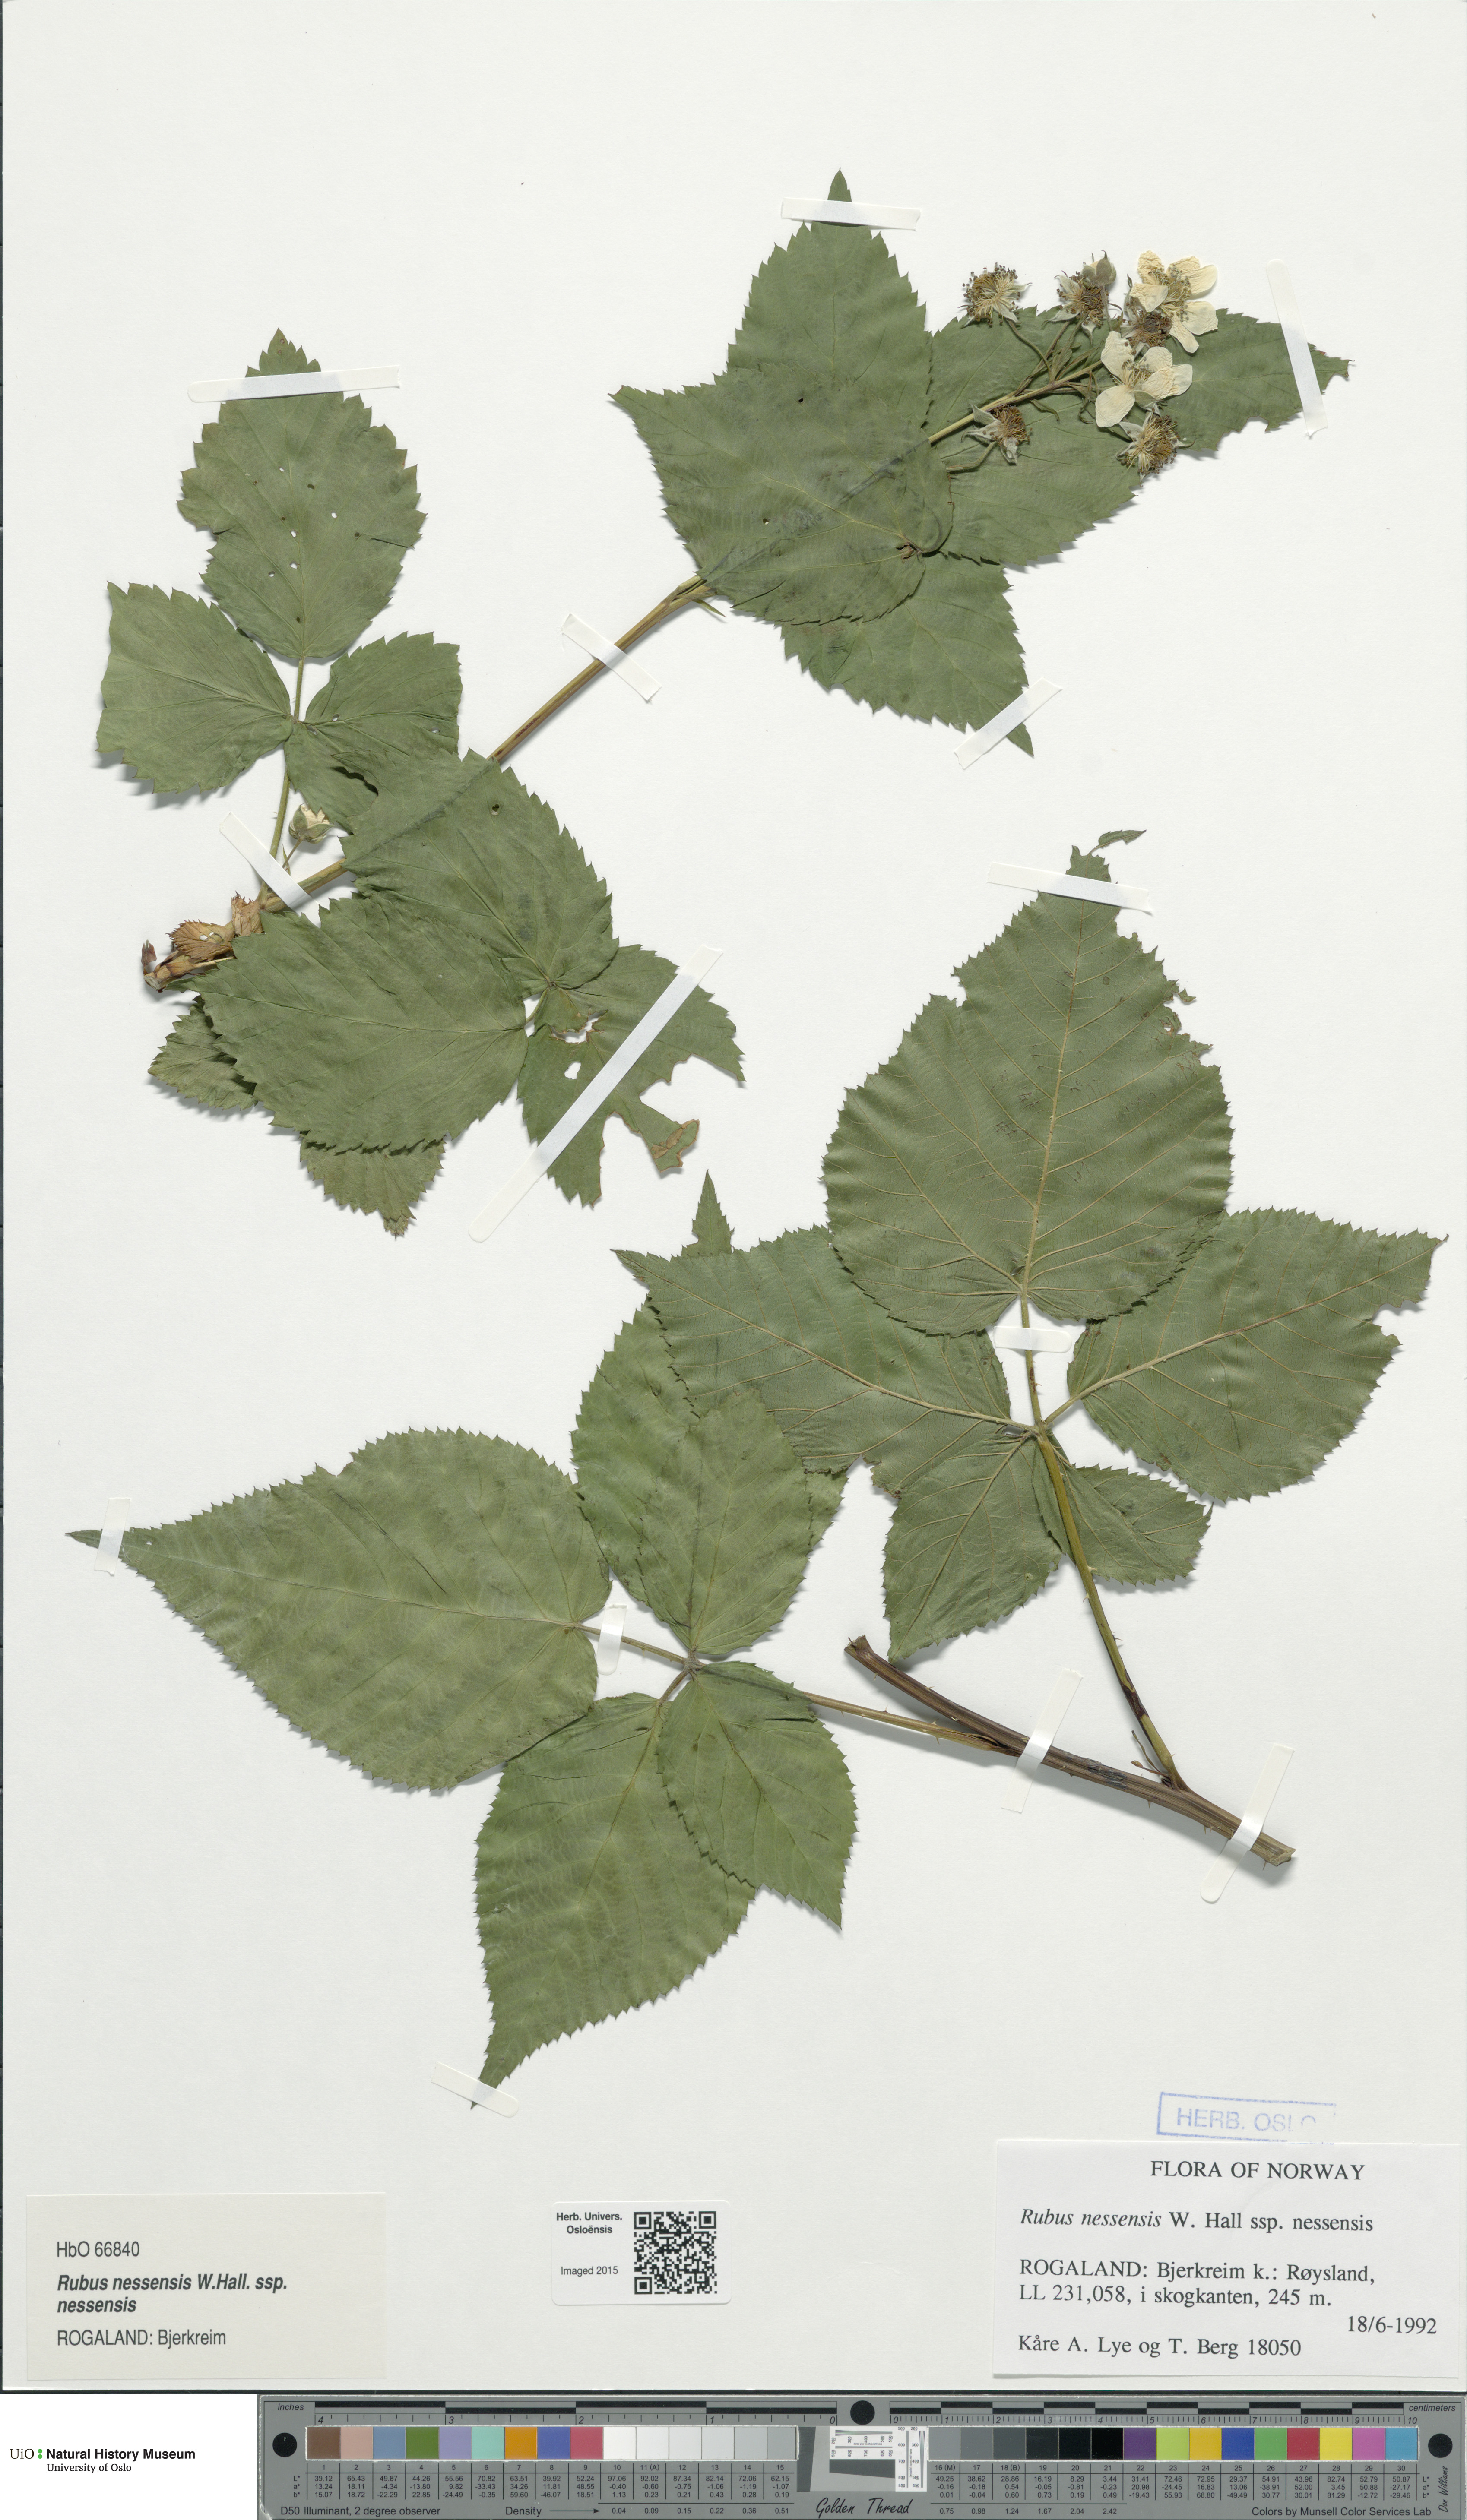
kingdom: Plantae
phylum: Tracheophyta
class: Magnoliopsida
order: Rosales
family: Rosaceae
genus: Rubus
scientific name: Rubus polonicus
